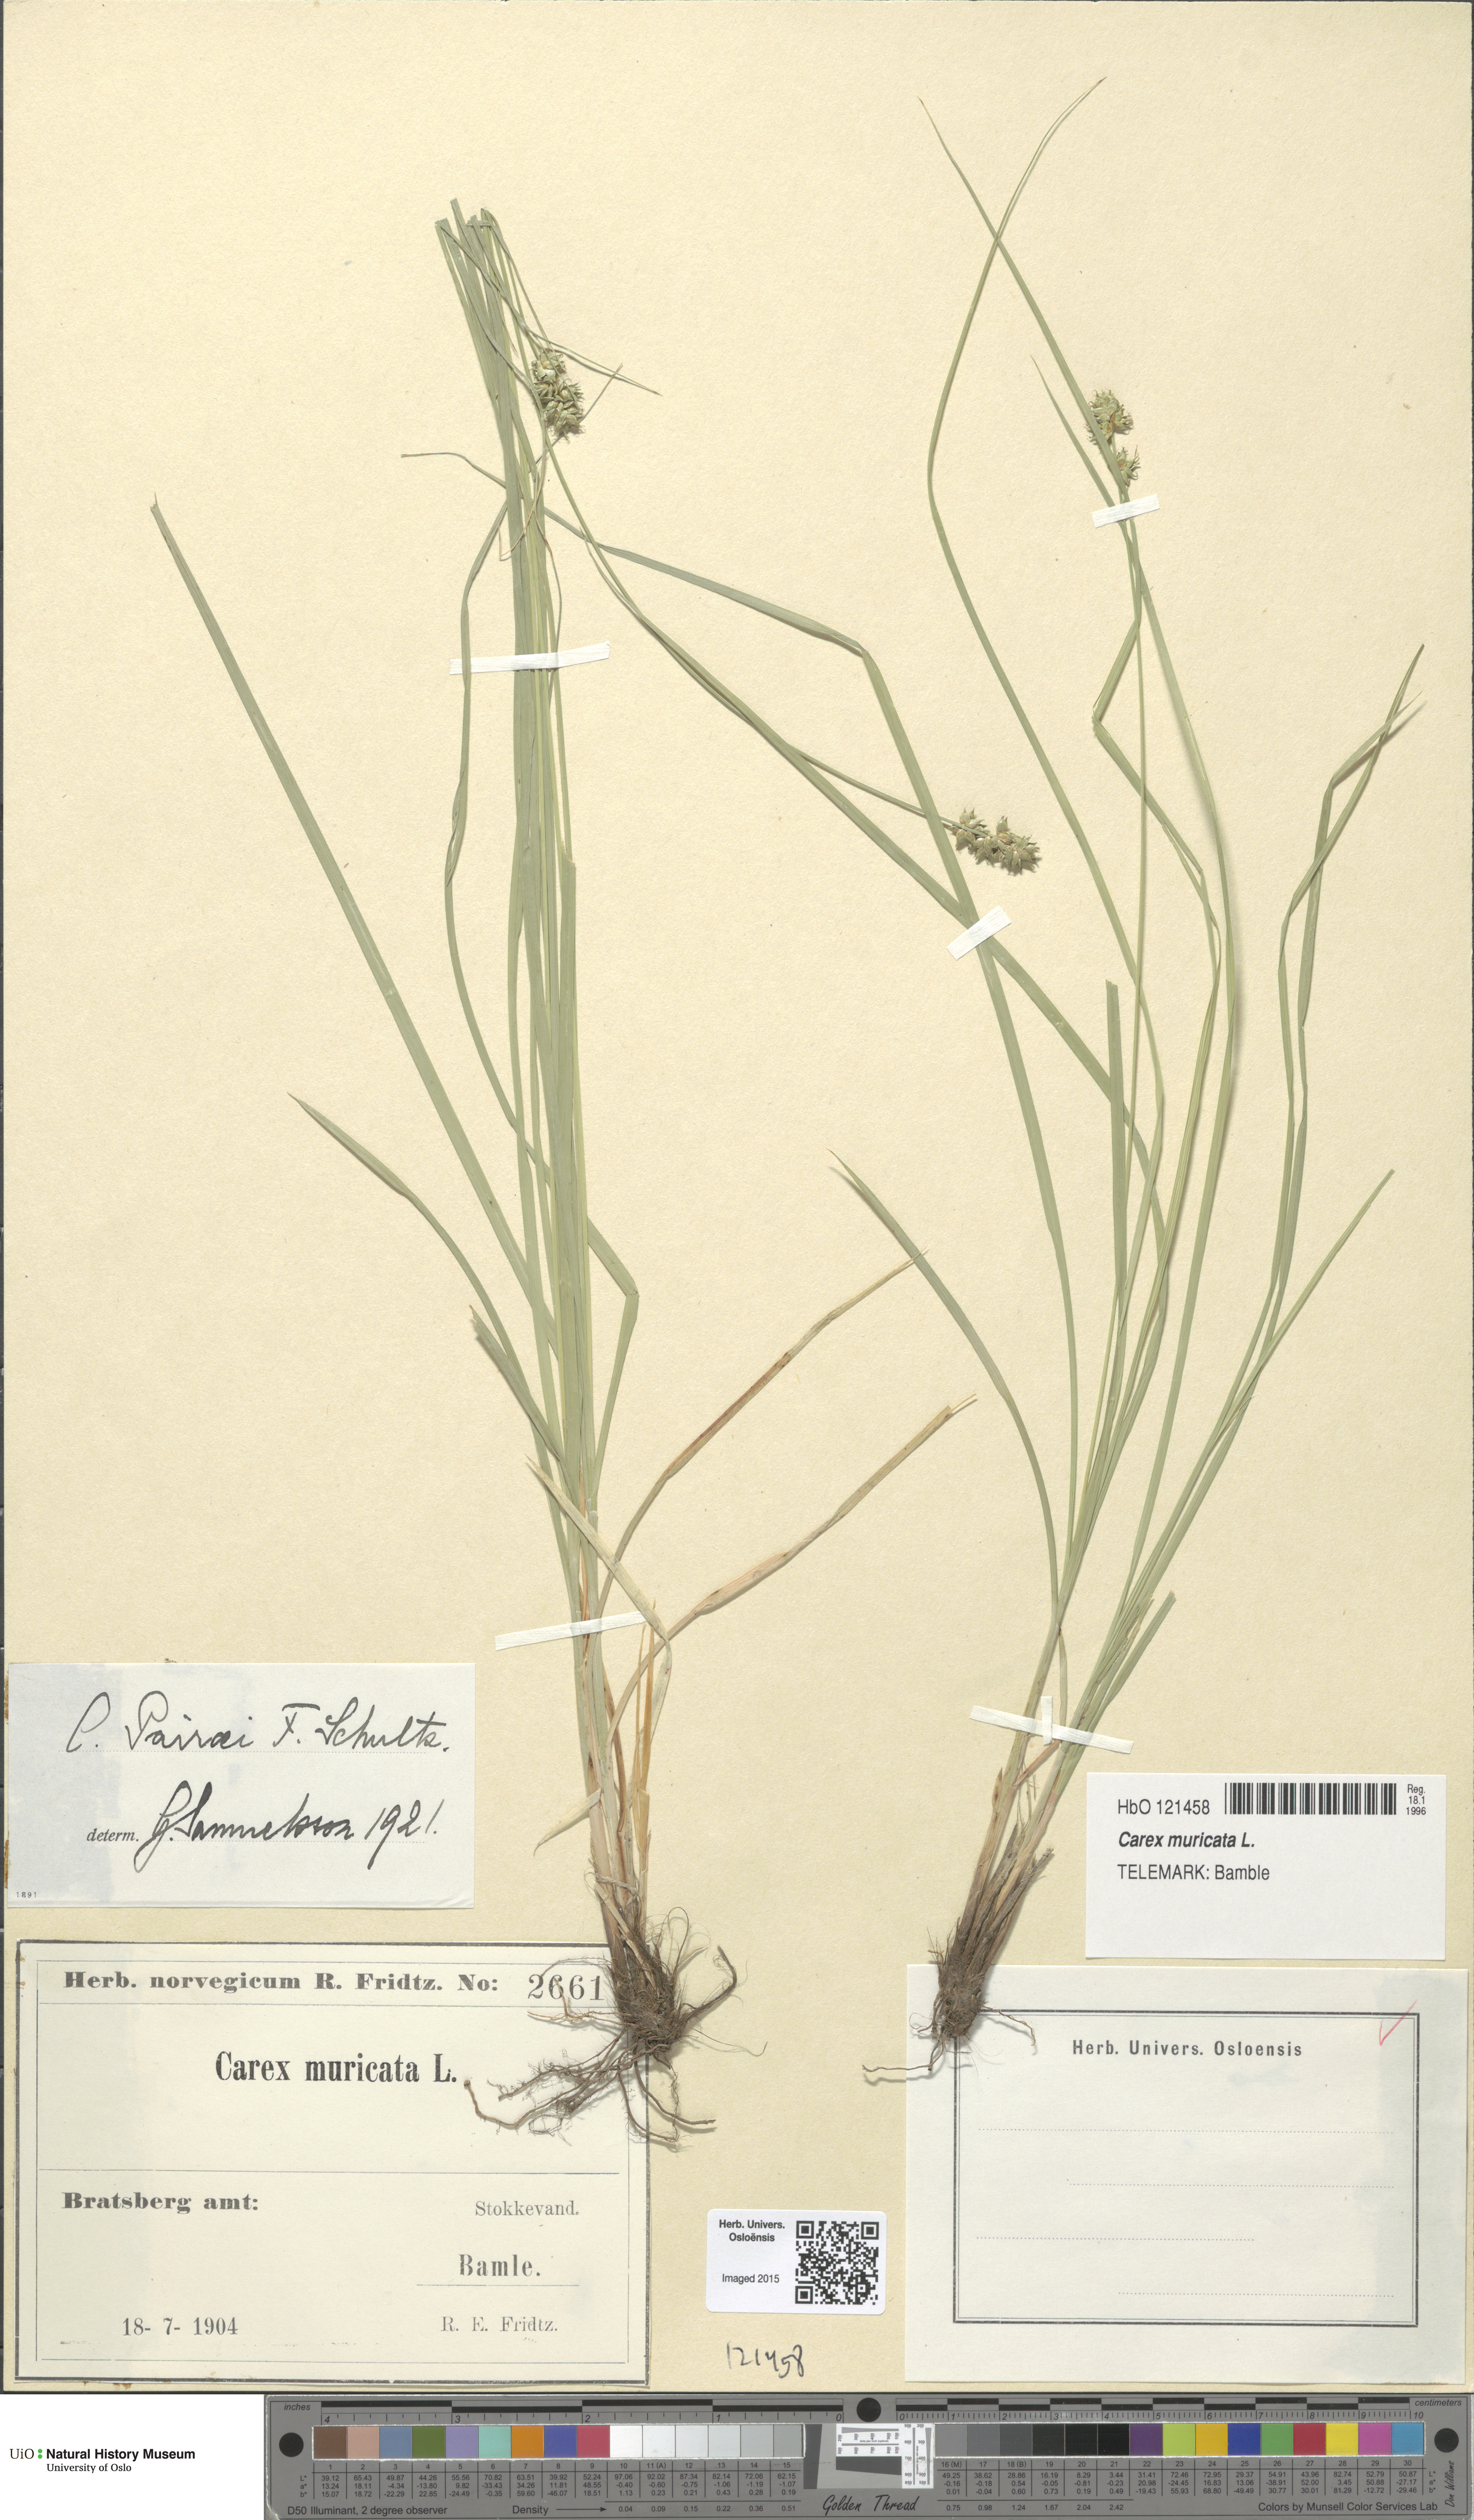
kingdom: Plantae
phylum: Tracheophyta
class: Liliopsida
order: Poales
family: Cyperaceae
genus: Carex
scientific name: Carex muricata
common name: Rough sedge
